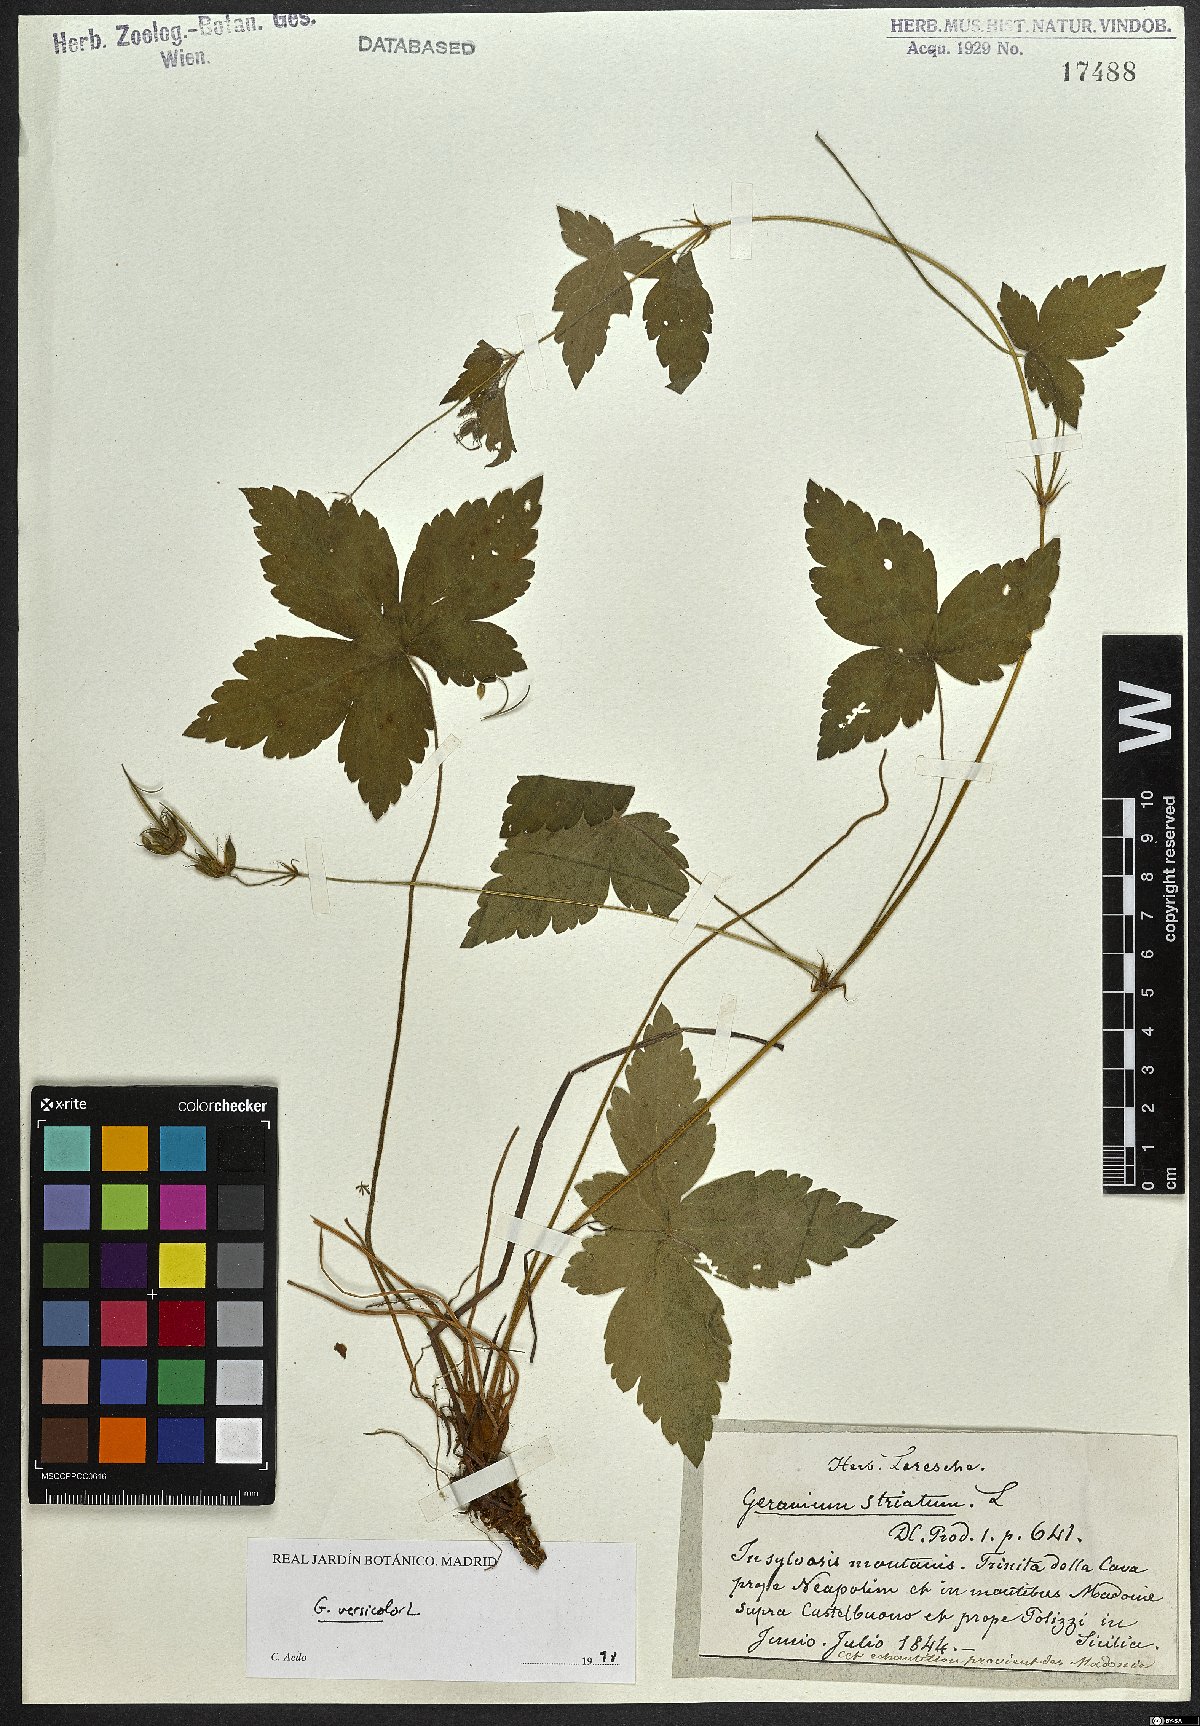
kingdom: Plantae
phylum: Tracheophyta
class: Magnoliopsida
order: Geraniales
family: Geraniaceae
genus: Geranium
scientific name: Geranium versicolor
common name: Pencilled crane's-bill
